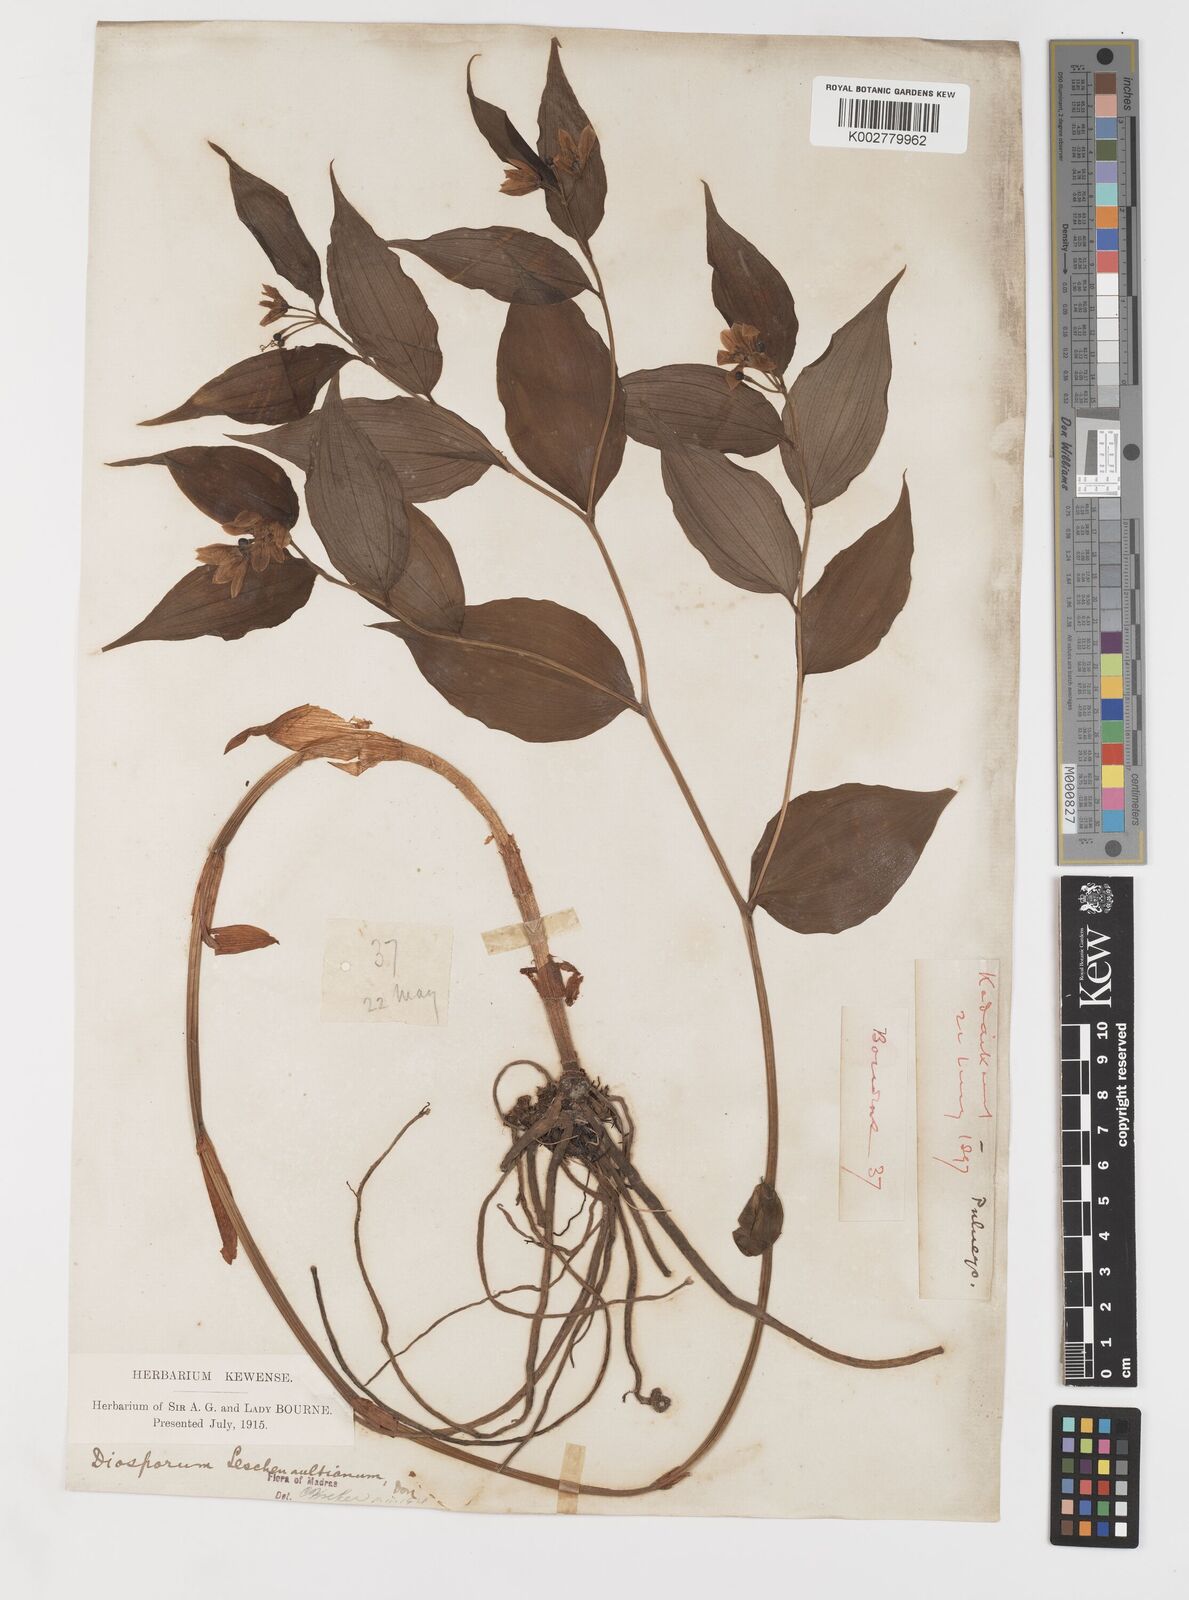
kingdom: Plantae
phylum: Tracheophyta
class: Liliopsida
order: Liliales
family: Colchicaceae
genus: Disporum
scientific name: Disporum cantoniense
